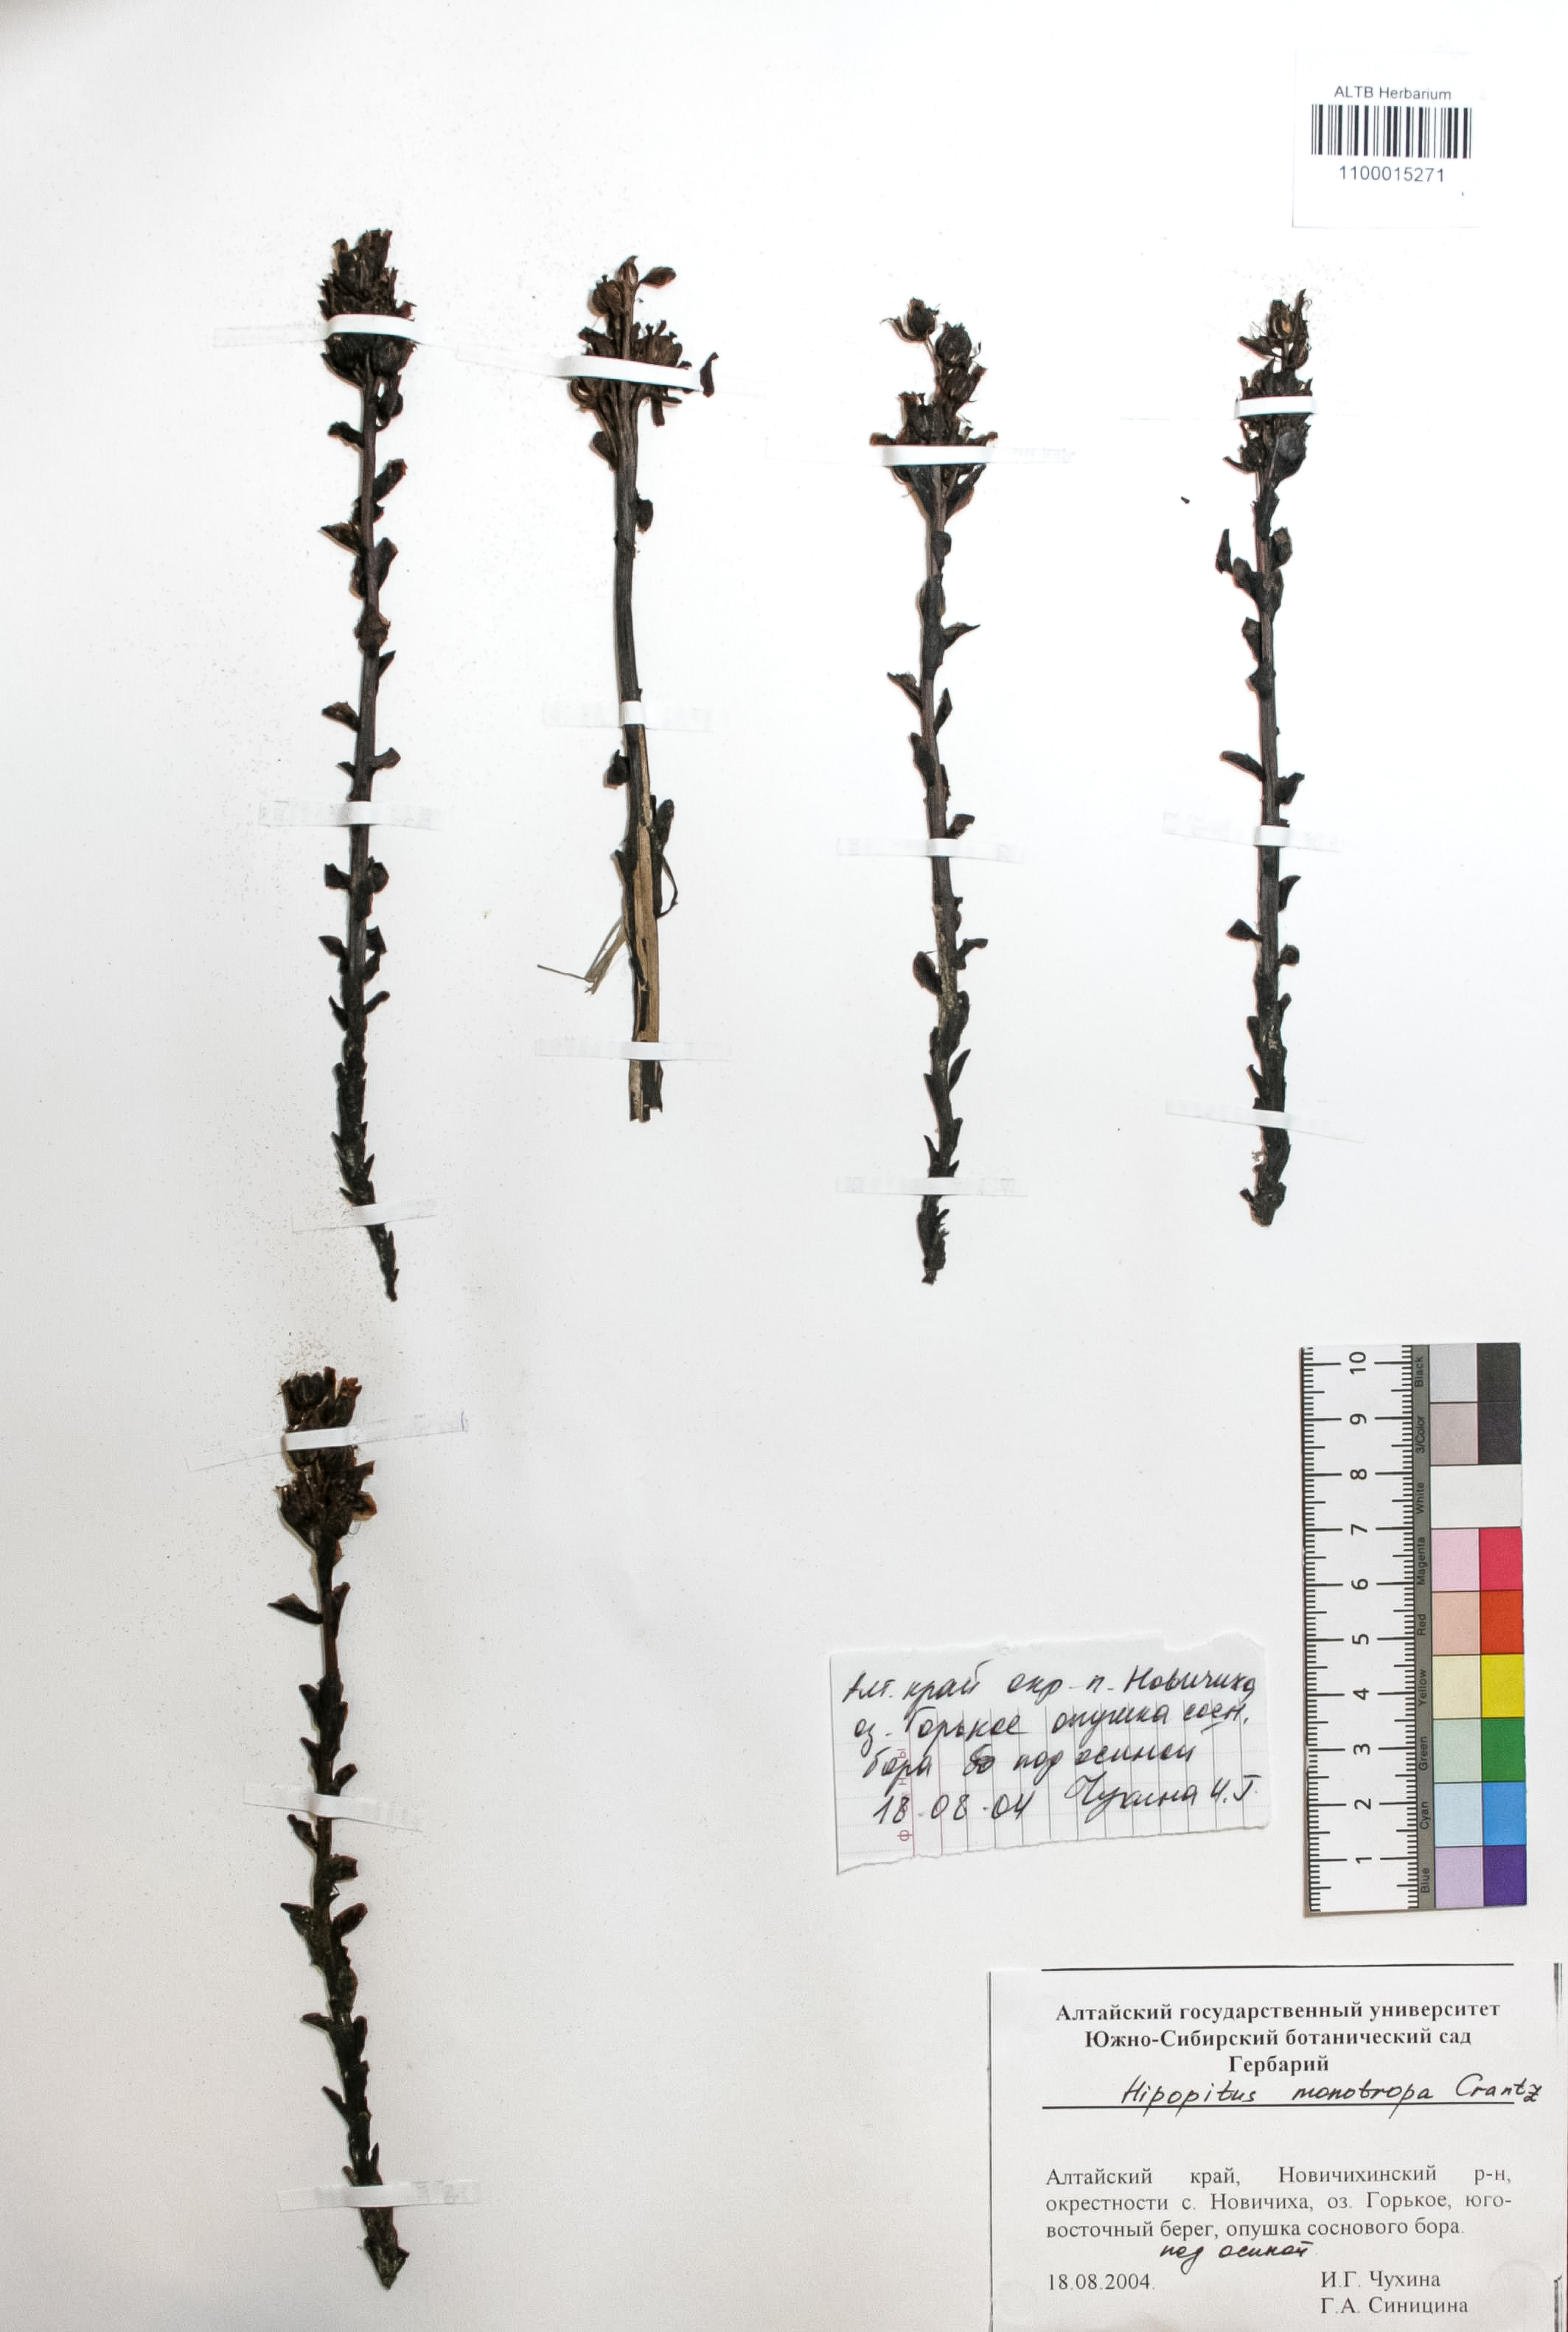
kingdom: Plantae
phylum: Tracheophyta
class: Magnoliopsida
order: Ericales
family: Ericaceae
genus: Hypopitys
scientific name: Hypopitys monotropa
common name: Yellow bird's-nest
